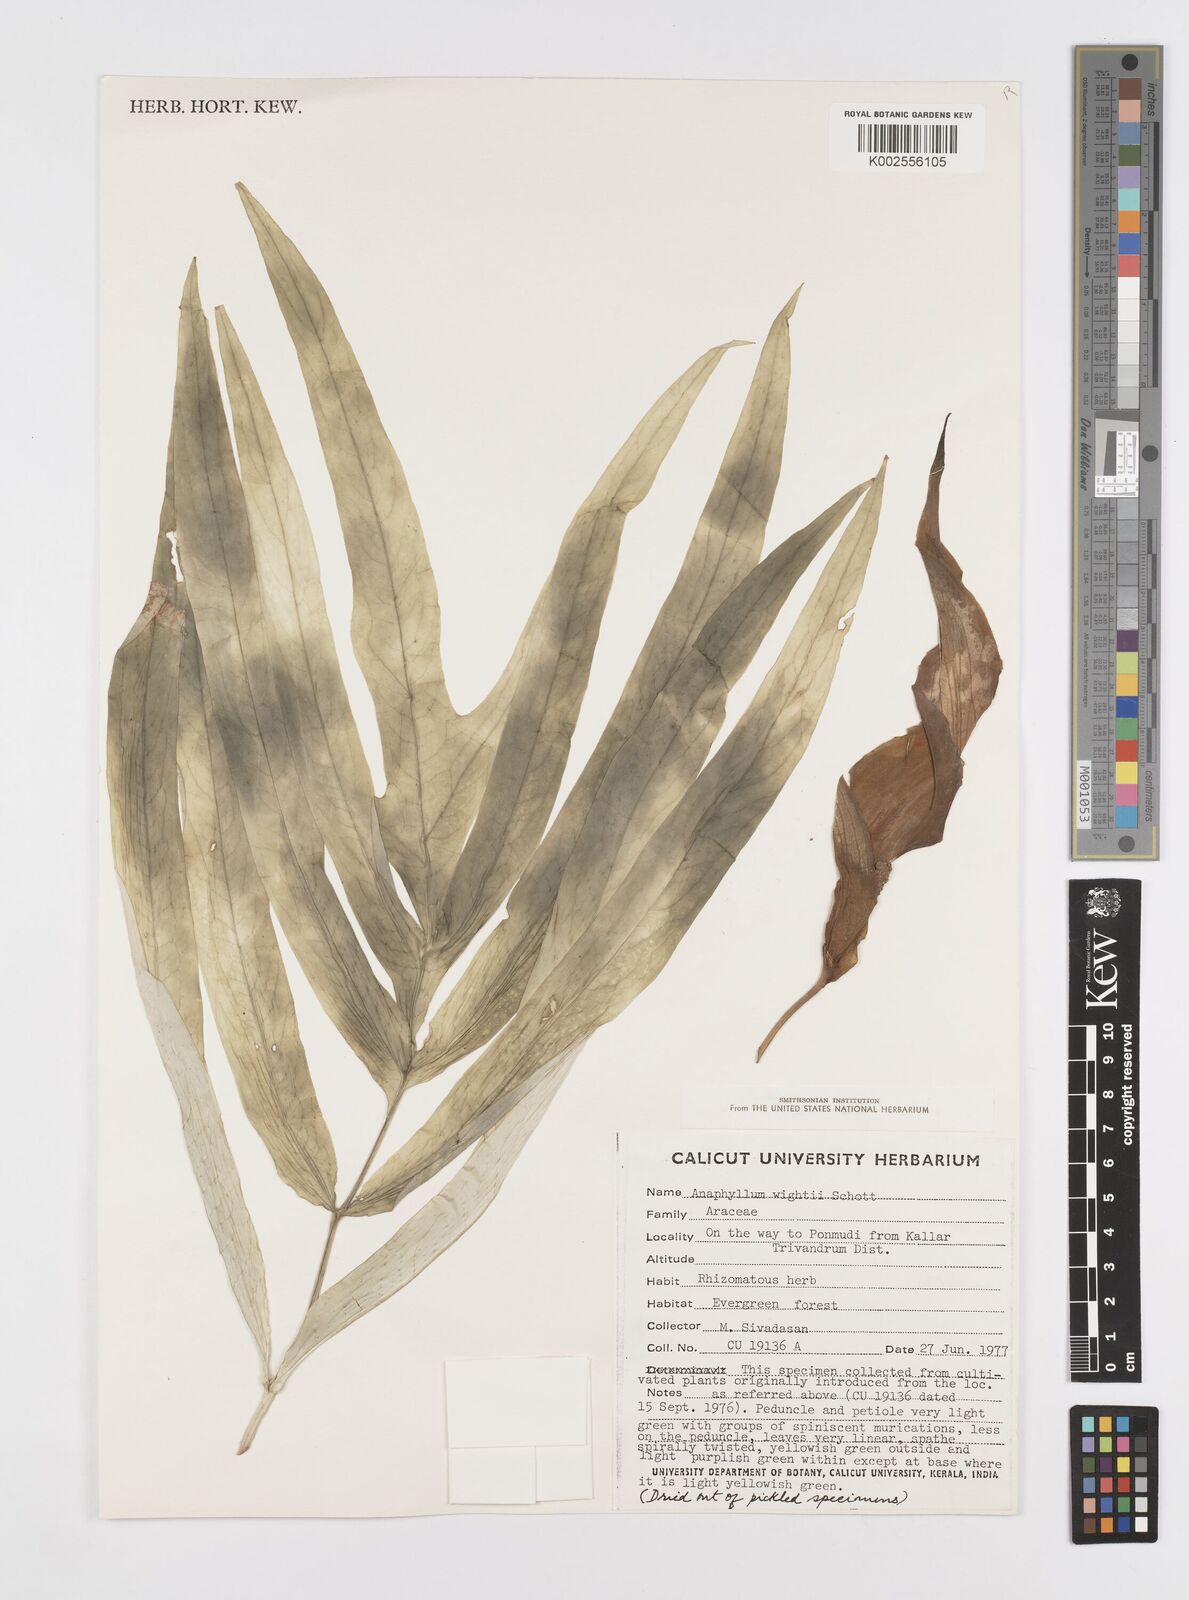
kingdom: Plantae
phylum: Tracheophyta
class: Liliopsida
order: Alismatales
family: Araceae
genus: Anaphyllum
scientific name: Anaphyllum wightii
